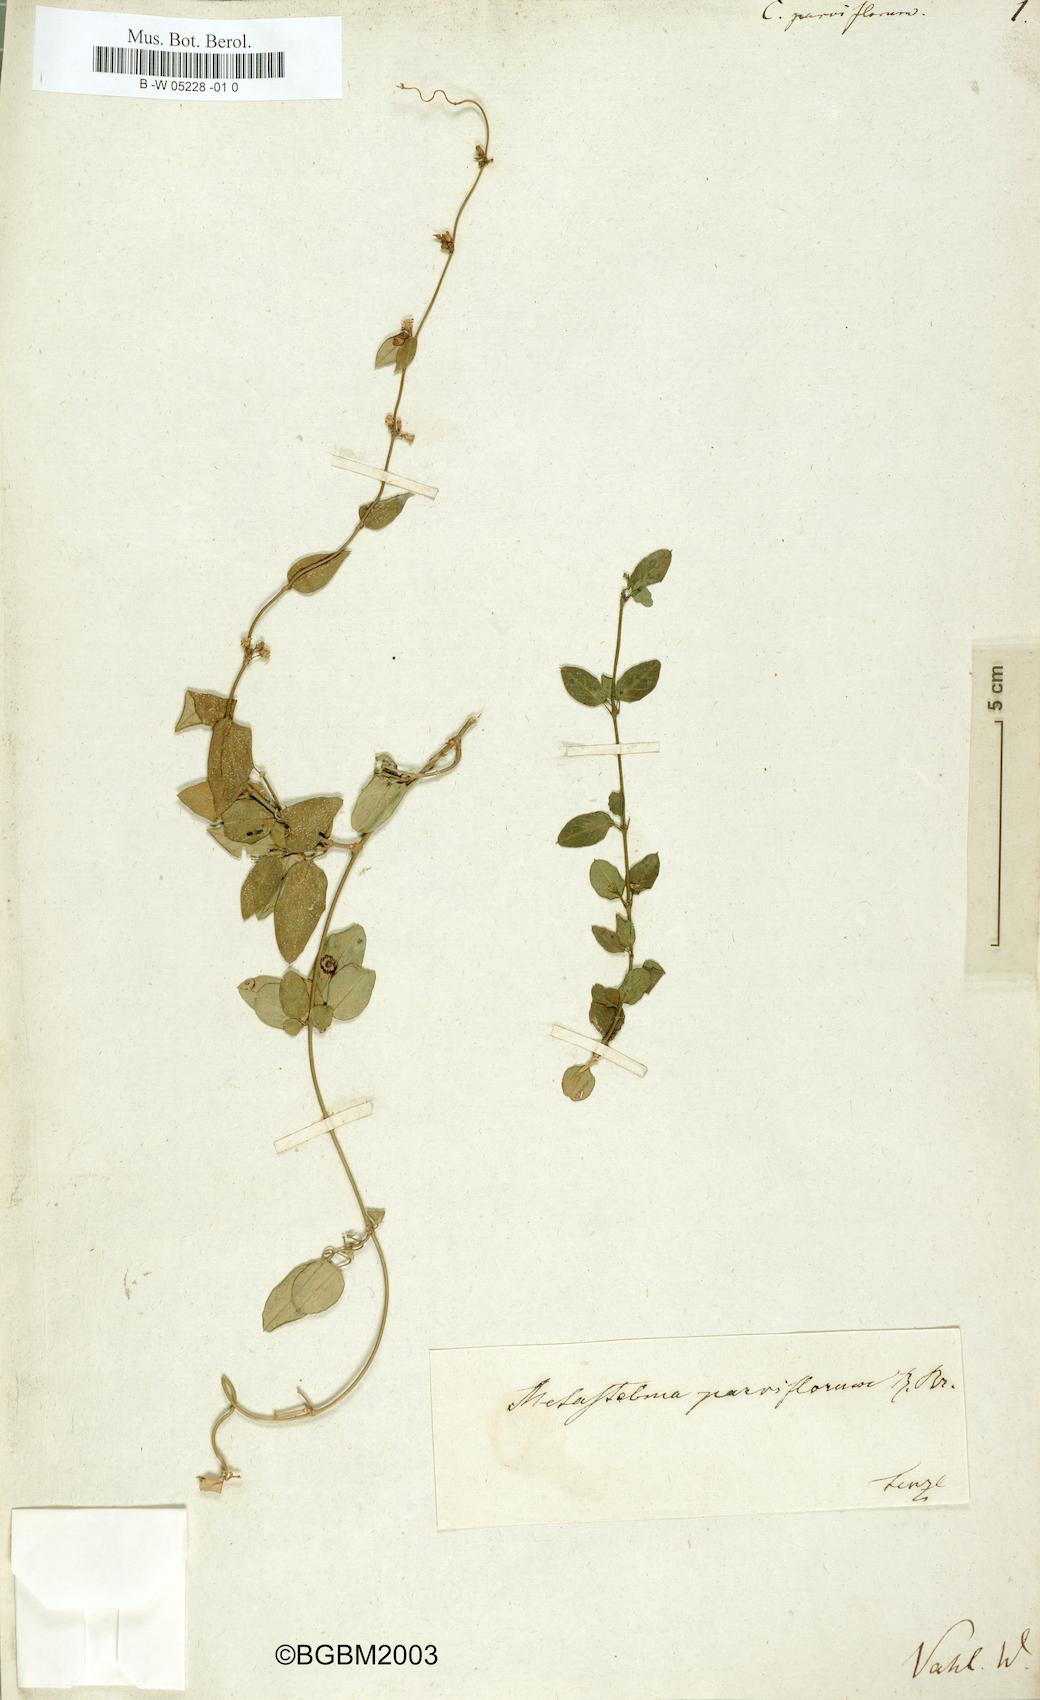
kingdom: Plantae
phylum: Tracheophyta
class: Magnoliopsida
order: Gentianales
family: Apocynaceae
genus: Metastelma
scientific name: Metastelma parviflorum
